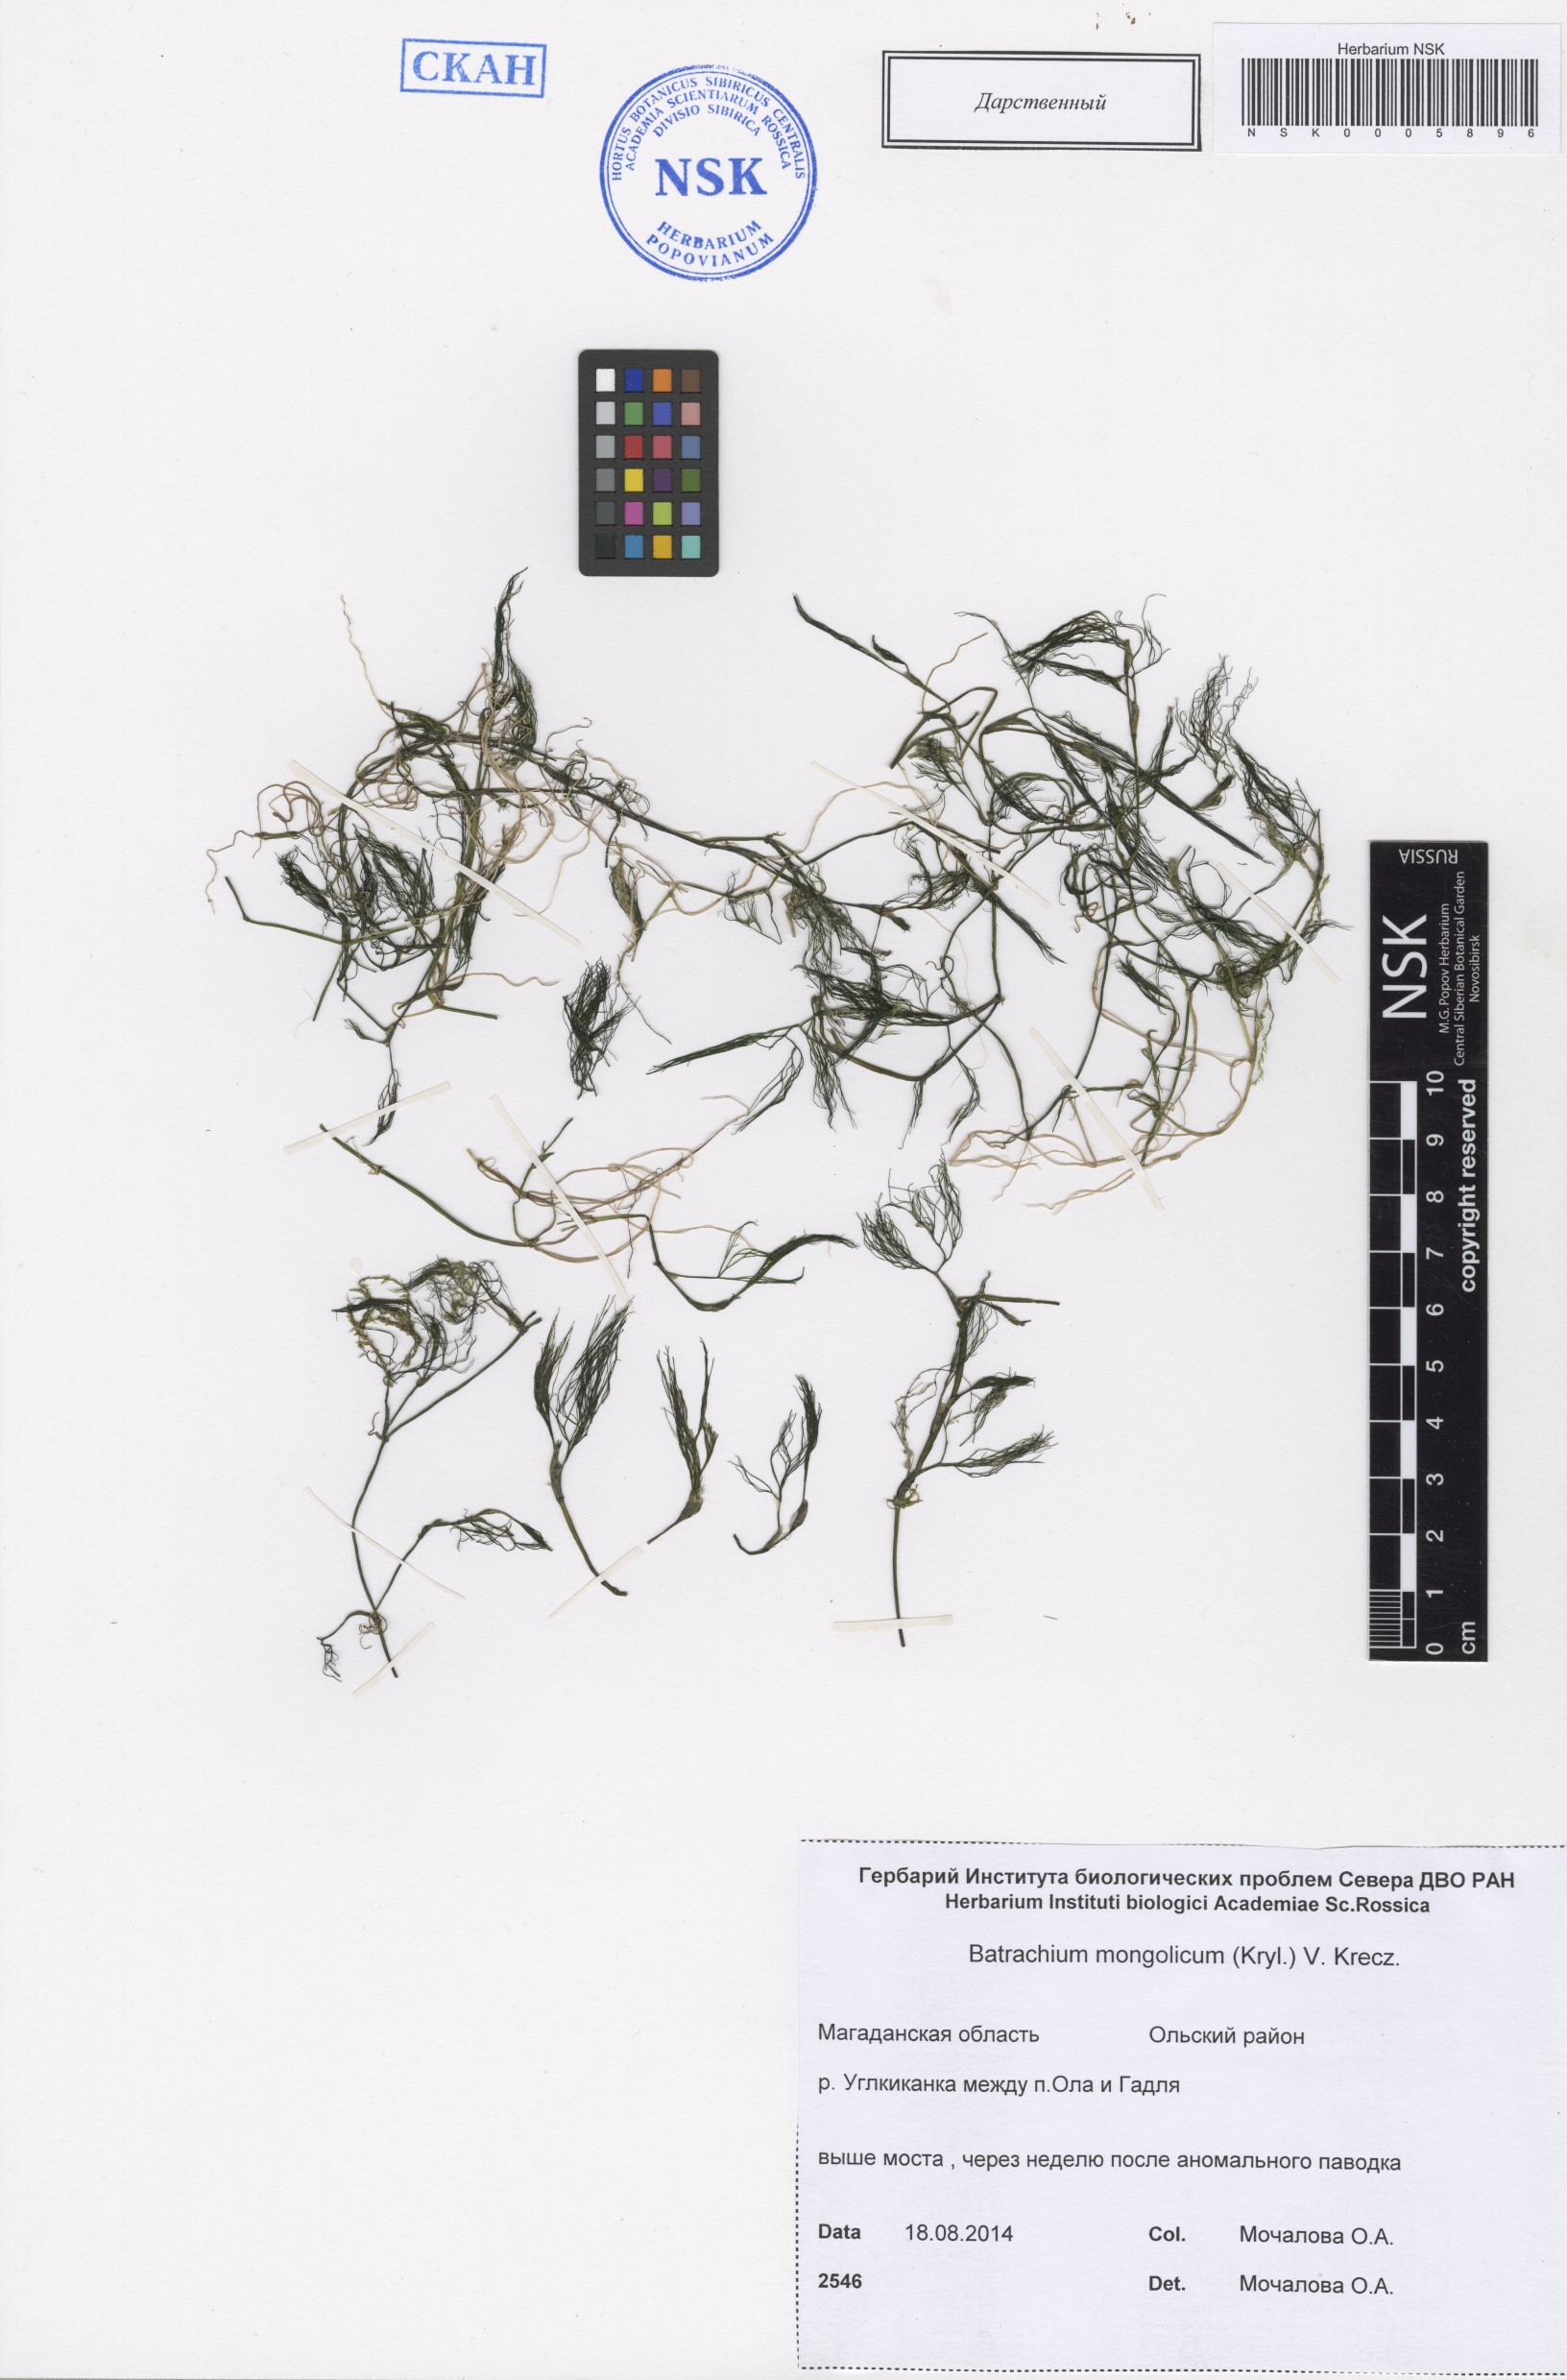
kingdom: Plantae
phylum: Tracheophyta
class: Magnoliopsida
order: Ranunculales
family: Ranunculaceae
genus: Ranunculus
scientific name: Ranunculus mongolicus
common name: Mongolia buttercup
